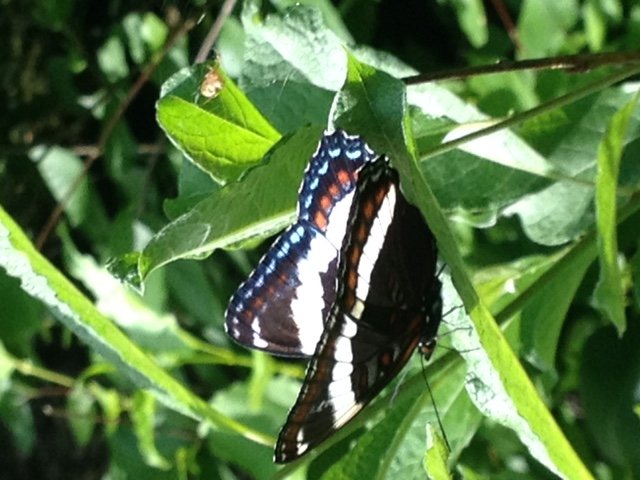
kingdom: Animalia
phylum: Arthropoda
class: Insecta
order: Lepidoptera
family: Nymphalidae
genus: Limenitis
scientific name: Limenitis arthemis
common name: Red-spotted Admiral
